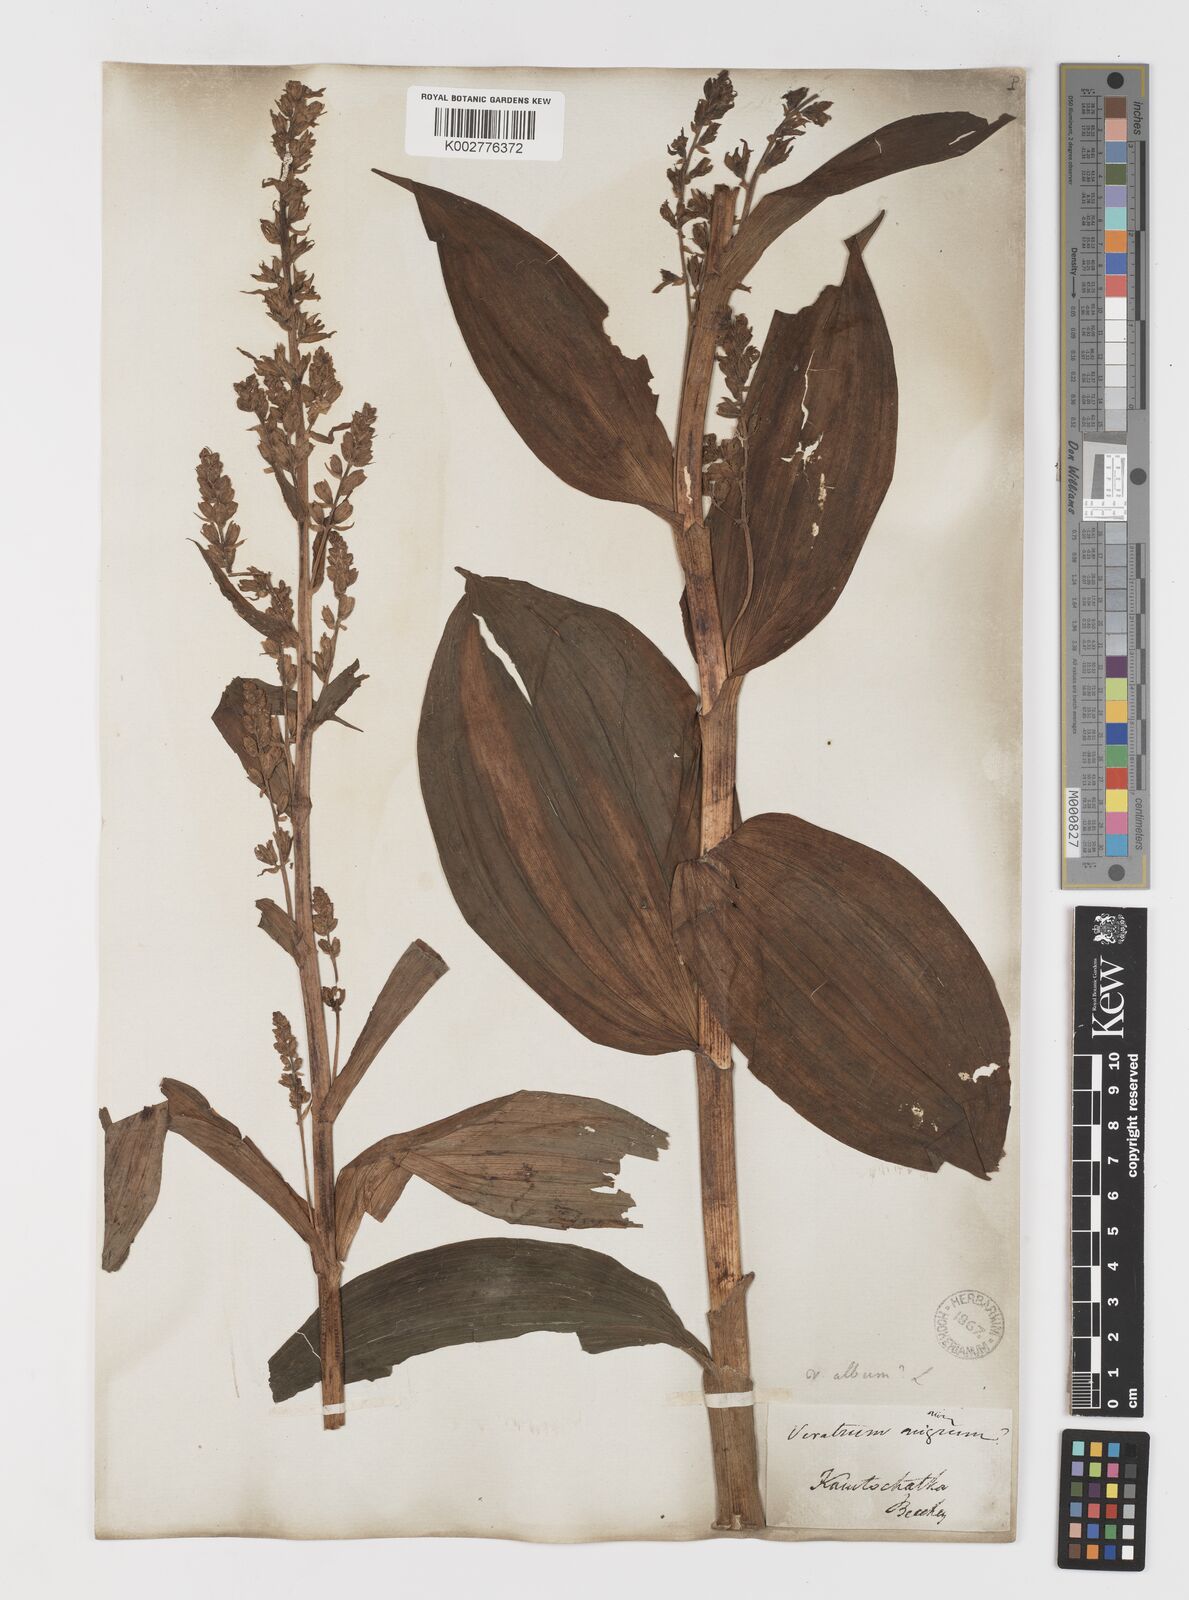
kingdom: Plantae
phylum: Tracheophyta
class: Liliopsida
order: Liliales
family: Melanthiaceae
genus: Veratrum
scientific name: Veratrum album
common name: White veratrum
